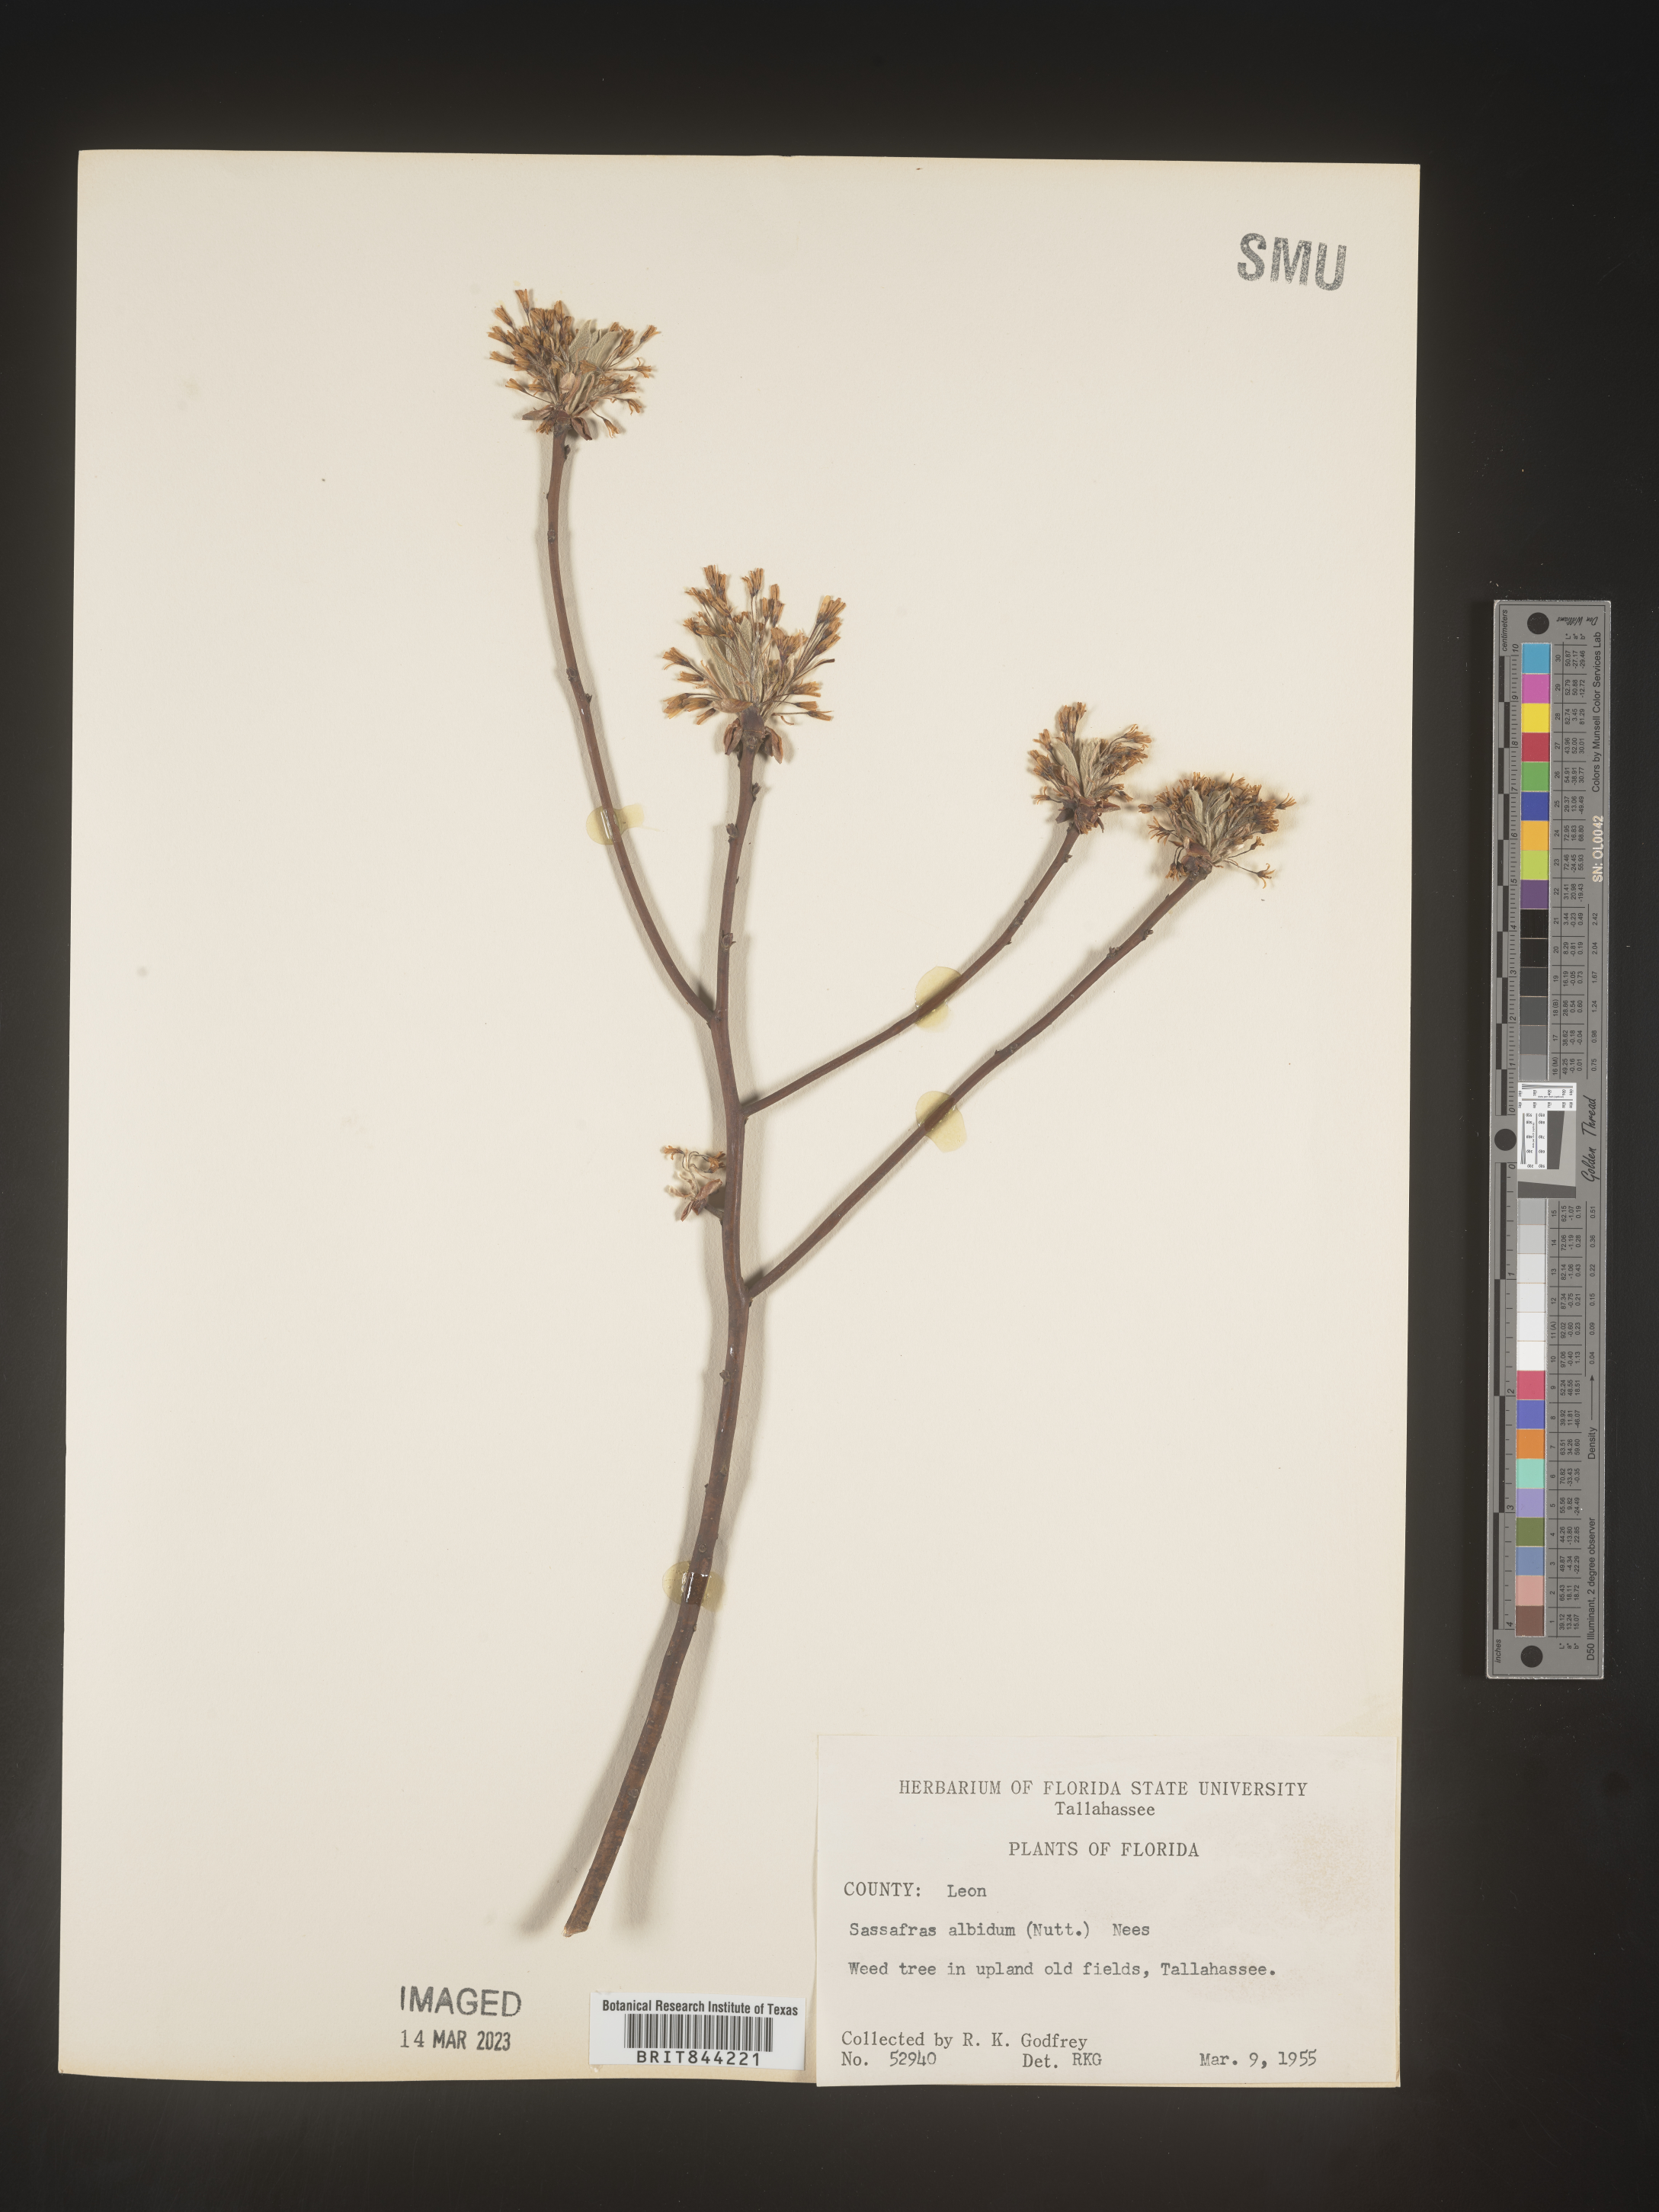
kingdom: Plantae
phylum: Tracheophyta
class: Magnoliopsida
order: Laurales
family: Lauraceae
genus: Sassafras
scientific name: Sassafras albidum
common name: Sassafras
